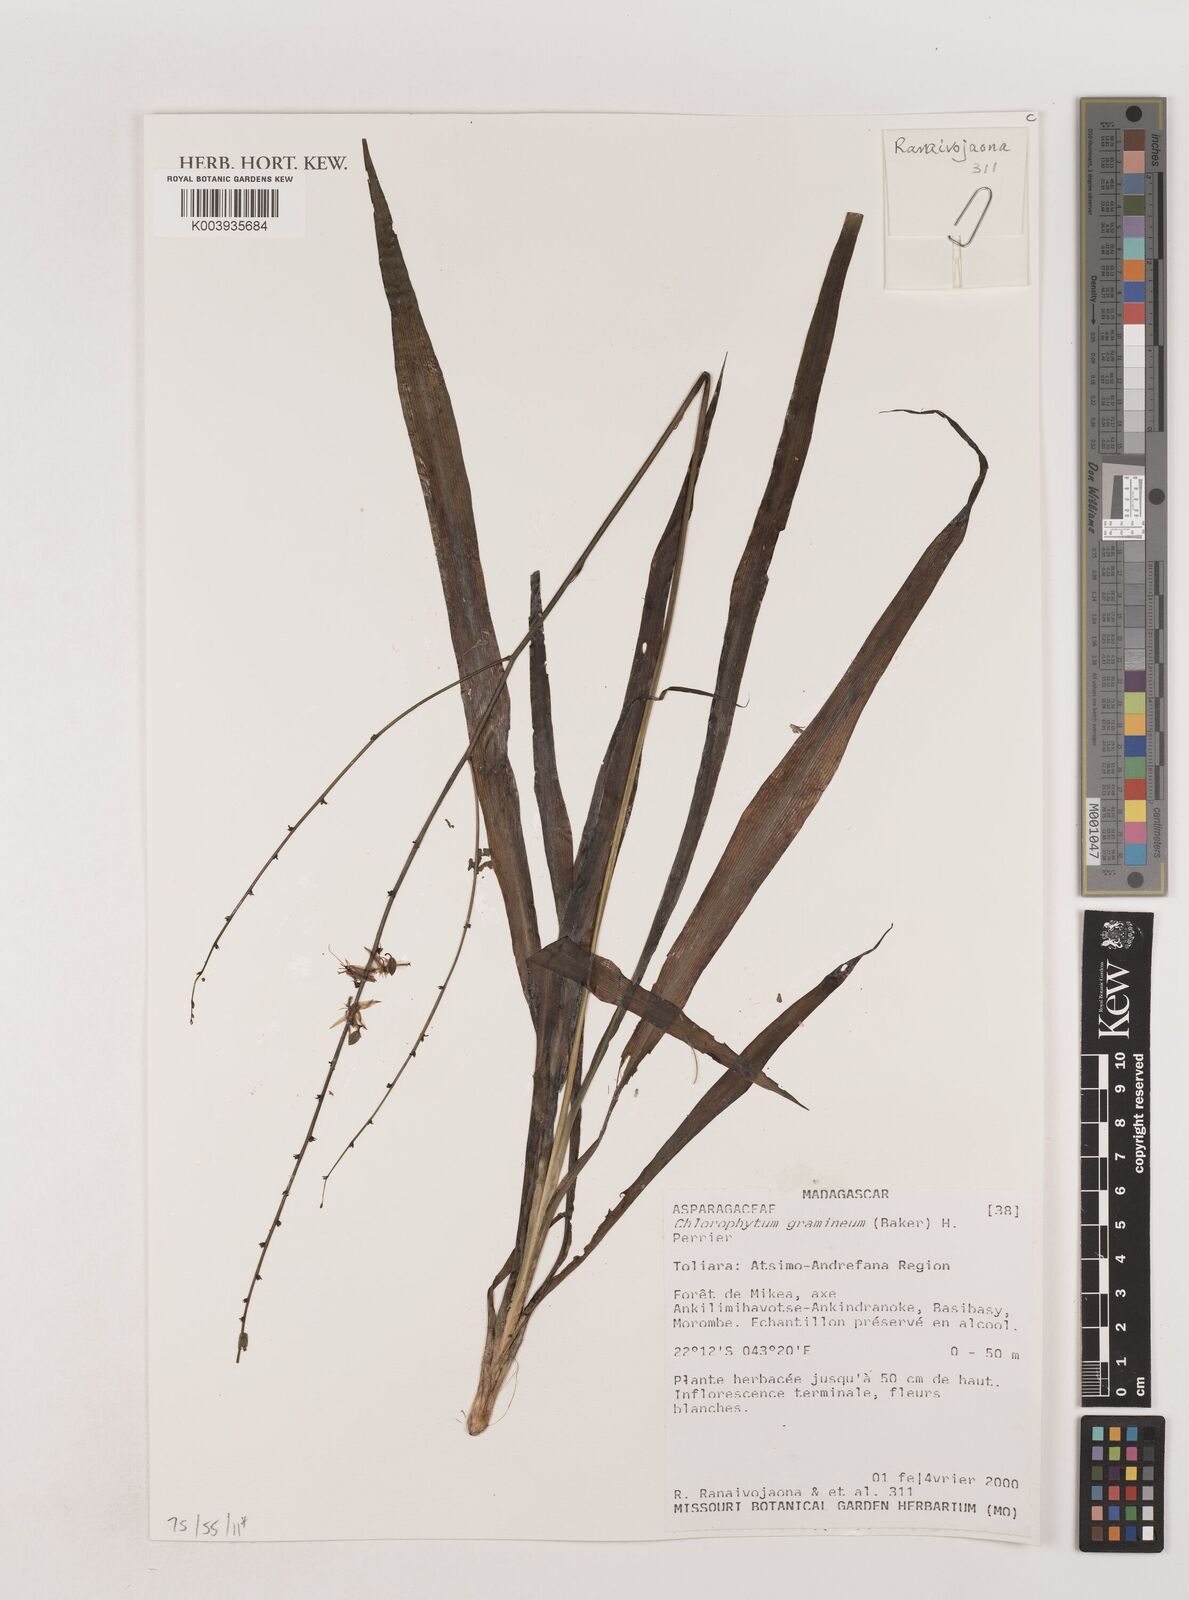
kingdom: Plantae
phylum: Tracheophyta
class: Liliopsida
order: Asparagales
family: Asparagaceae
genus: Chlorophytum
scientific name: Chlorophytum madagascariense
